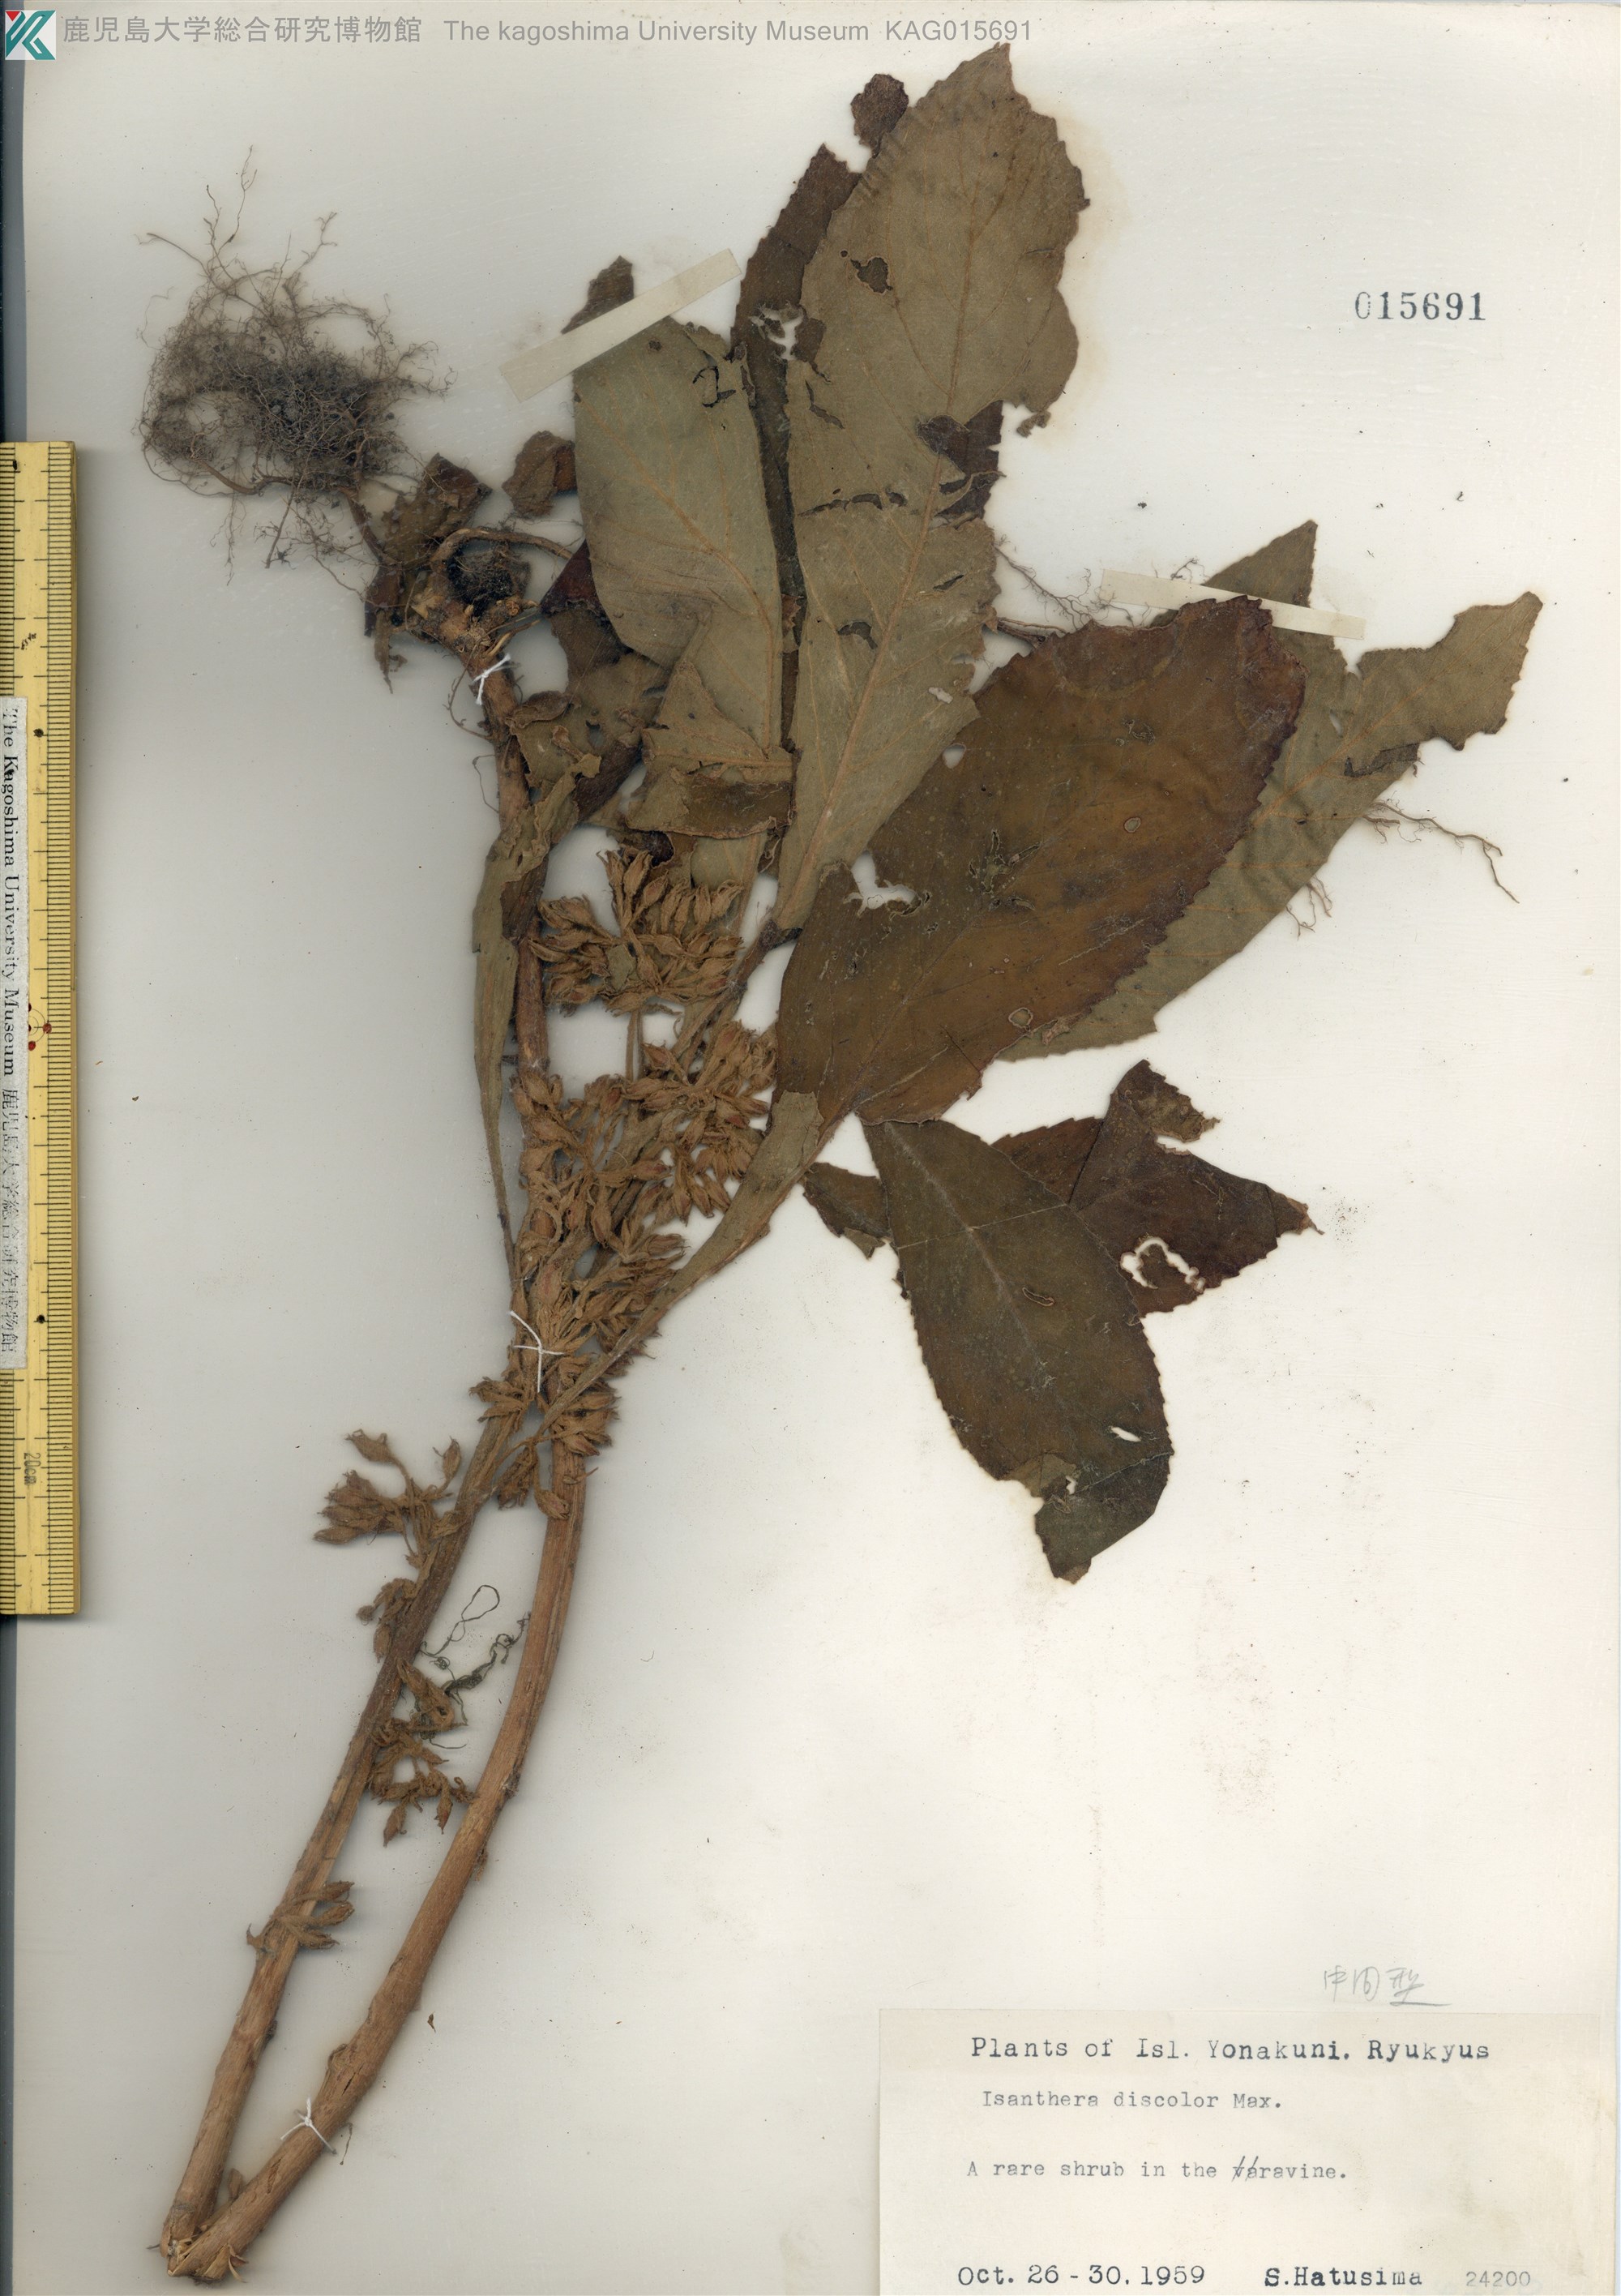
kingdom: Plantae
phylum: Tracheophyta
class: Magnoliopsida
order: Lamiales
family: Gesneriaceae
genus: Rhynchotechum
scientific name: Rhynchotechum discolor
